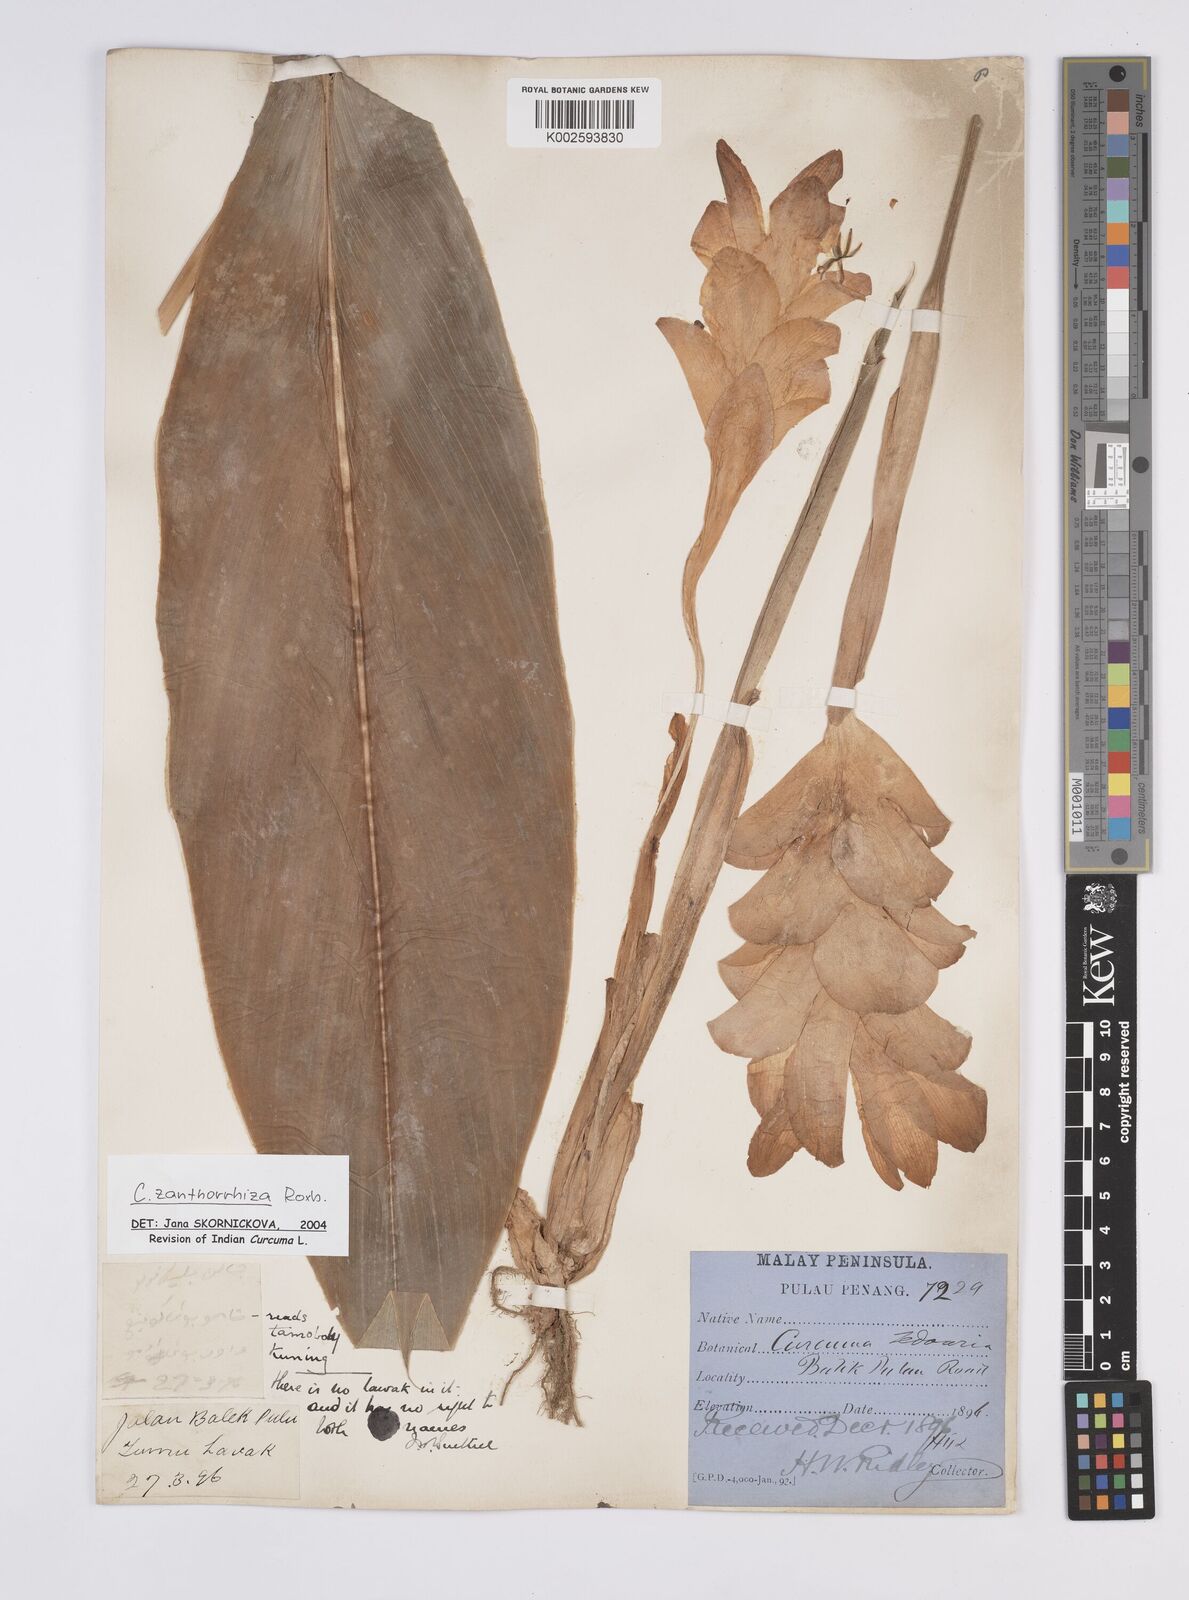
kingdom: Plantae
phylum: Tracheophyta
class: Liliopsida
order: Zingiberales
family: Zingiberaceae
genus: Curcuma
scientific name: Curcuma zanthorrhiza
